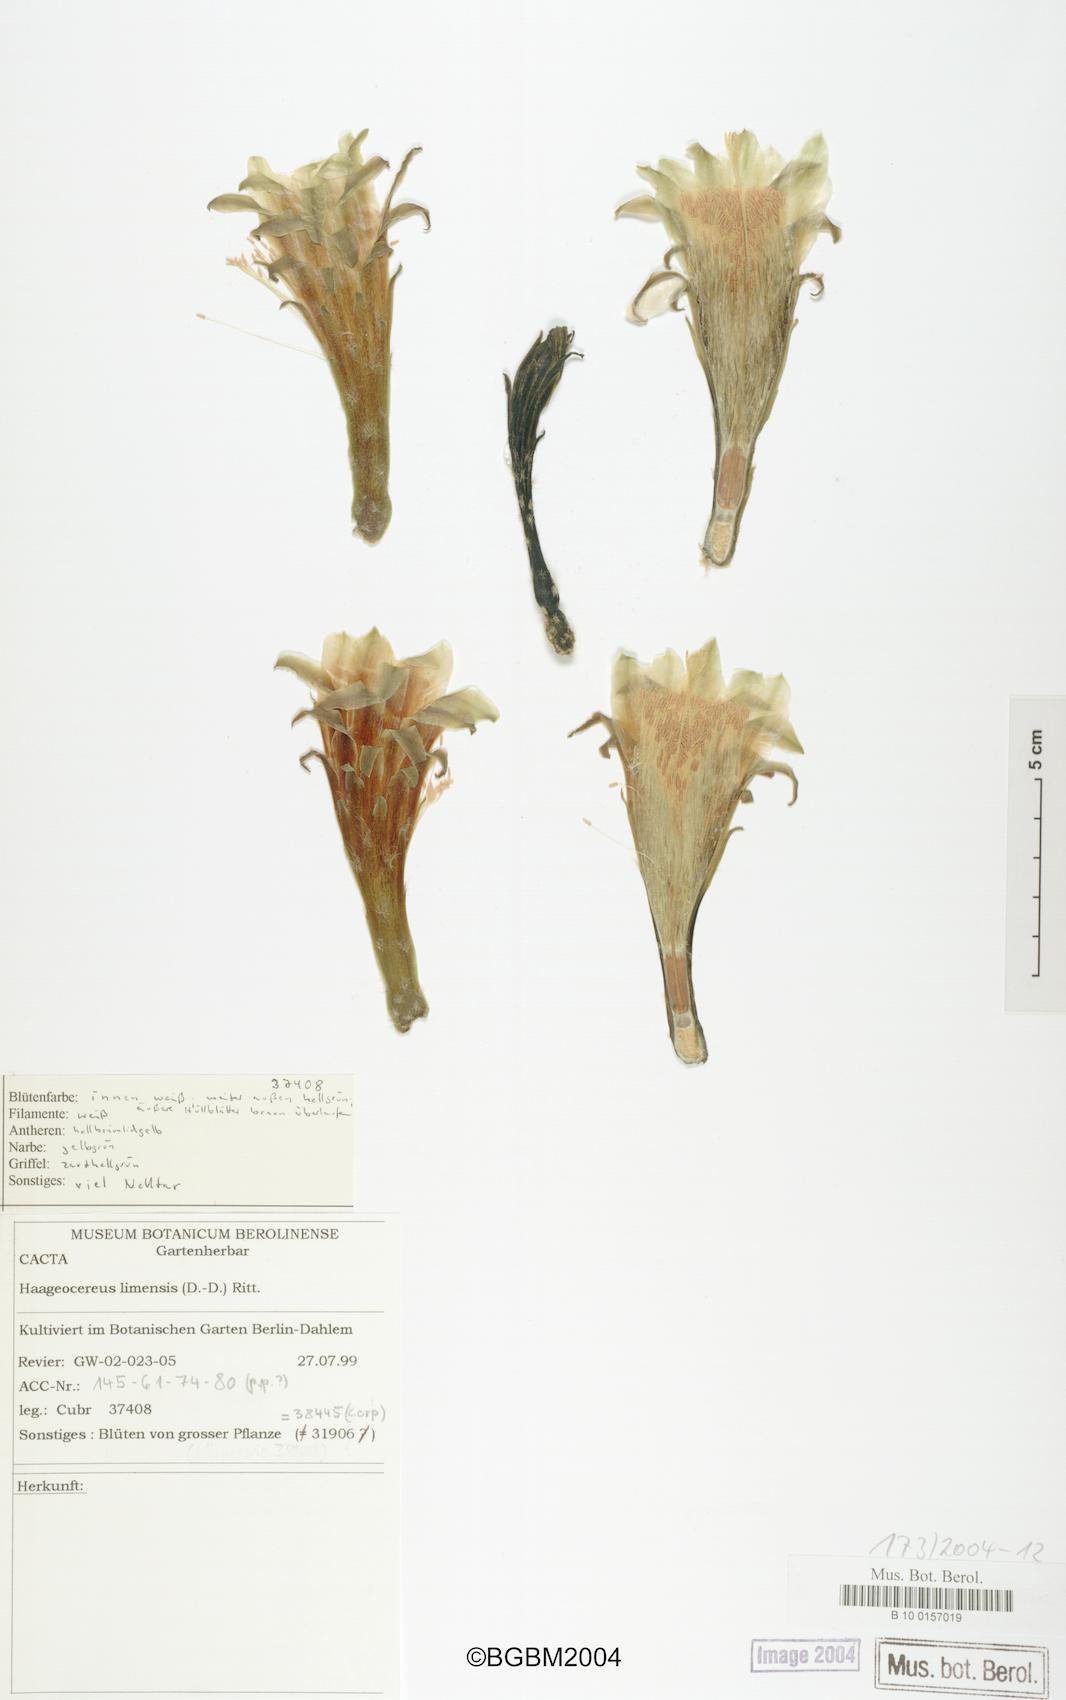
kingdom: Plantae
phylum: Tracheophyta
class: Magnoliopsida
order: Caryophyllales
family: Cactaceae
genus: Haageocereus
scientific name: Haageocereus acranthus
